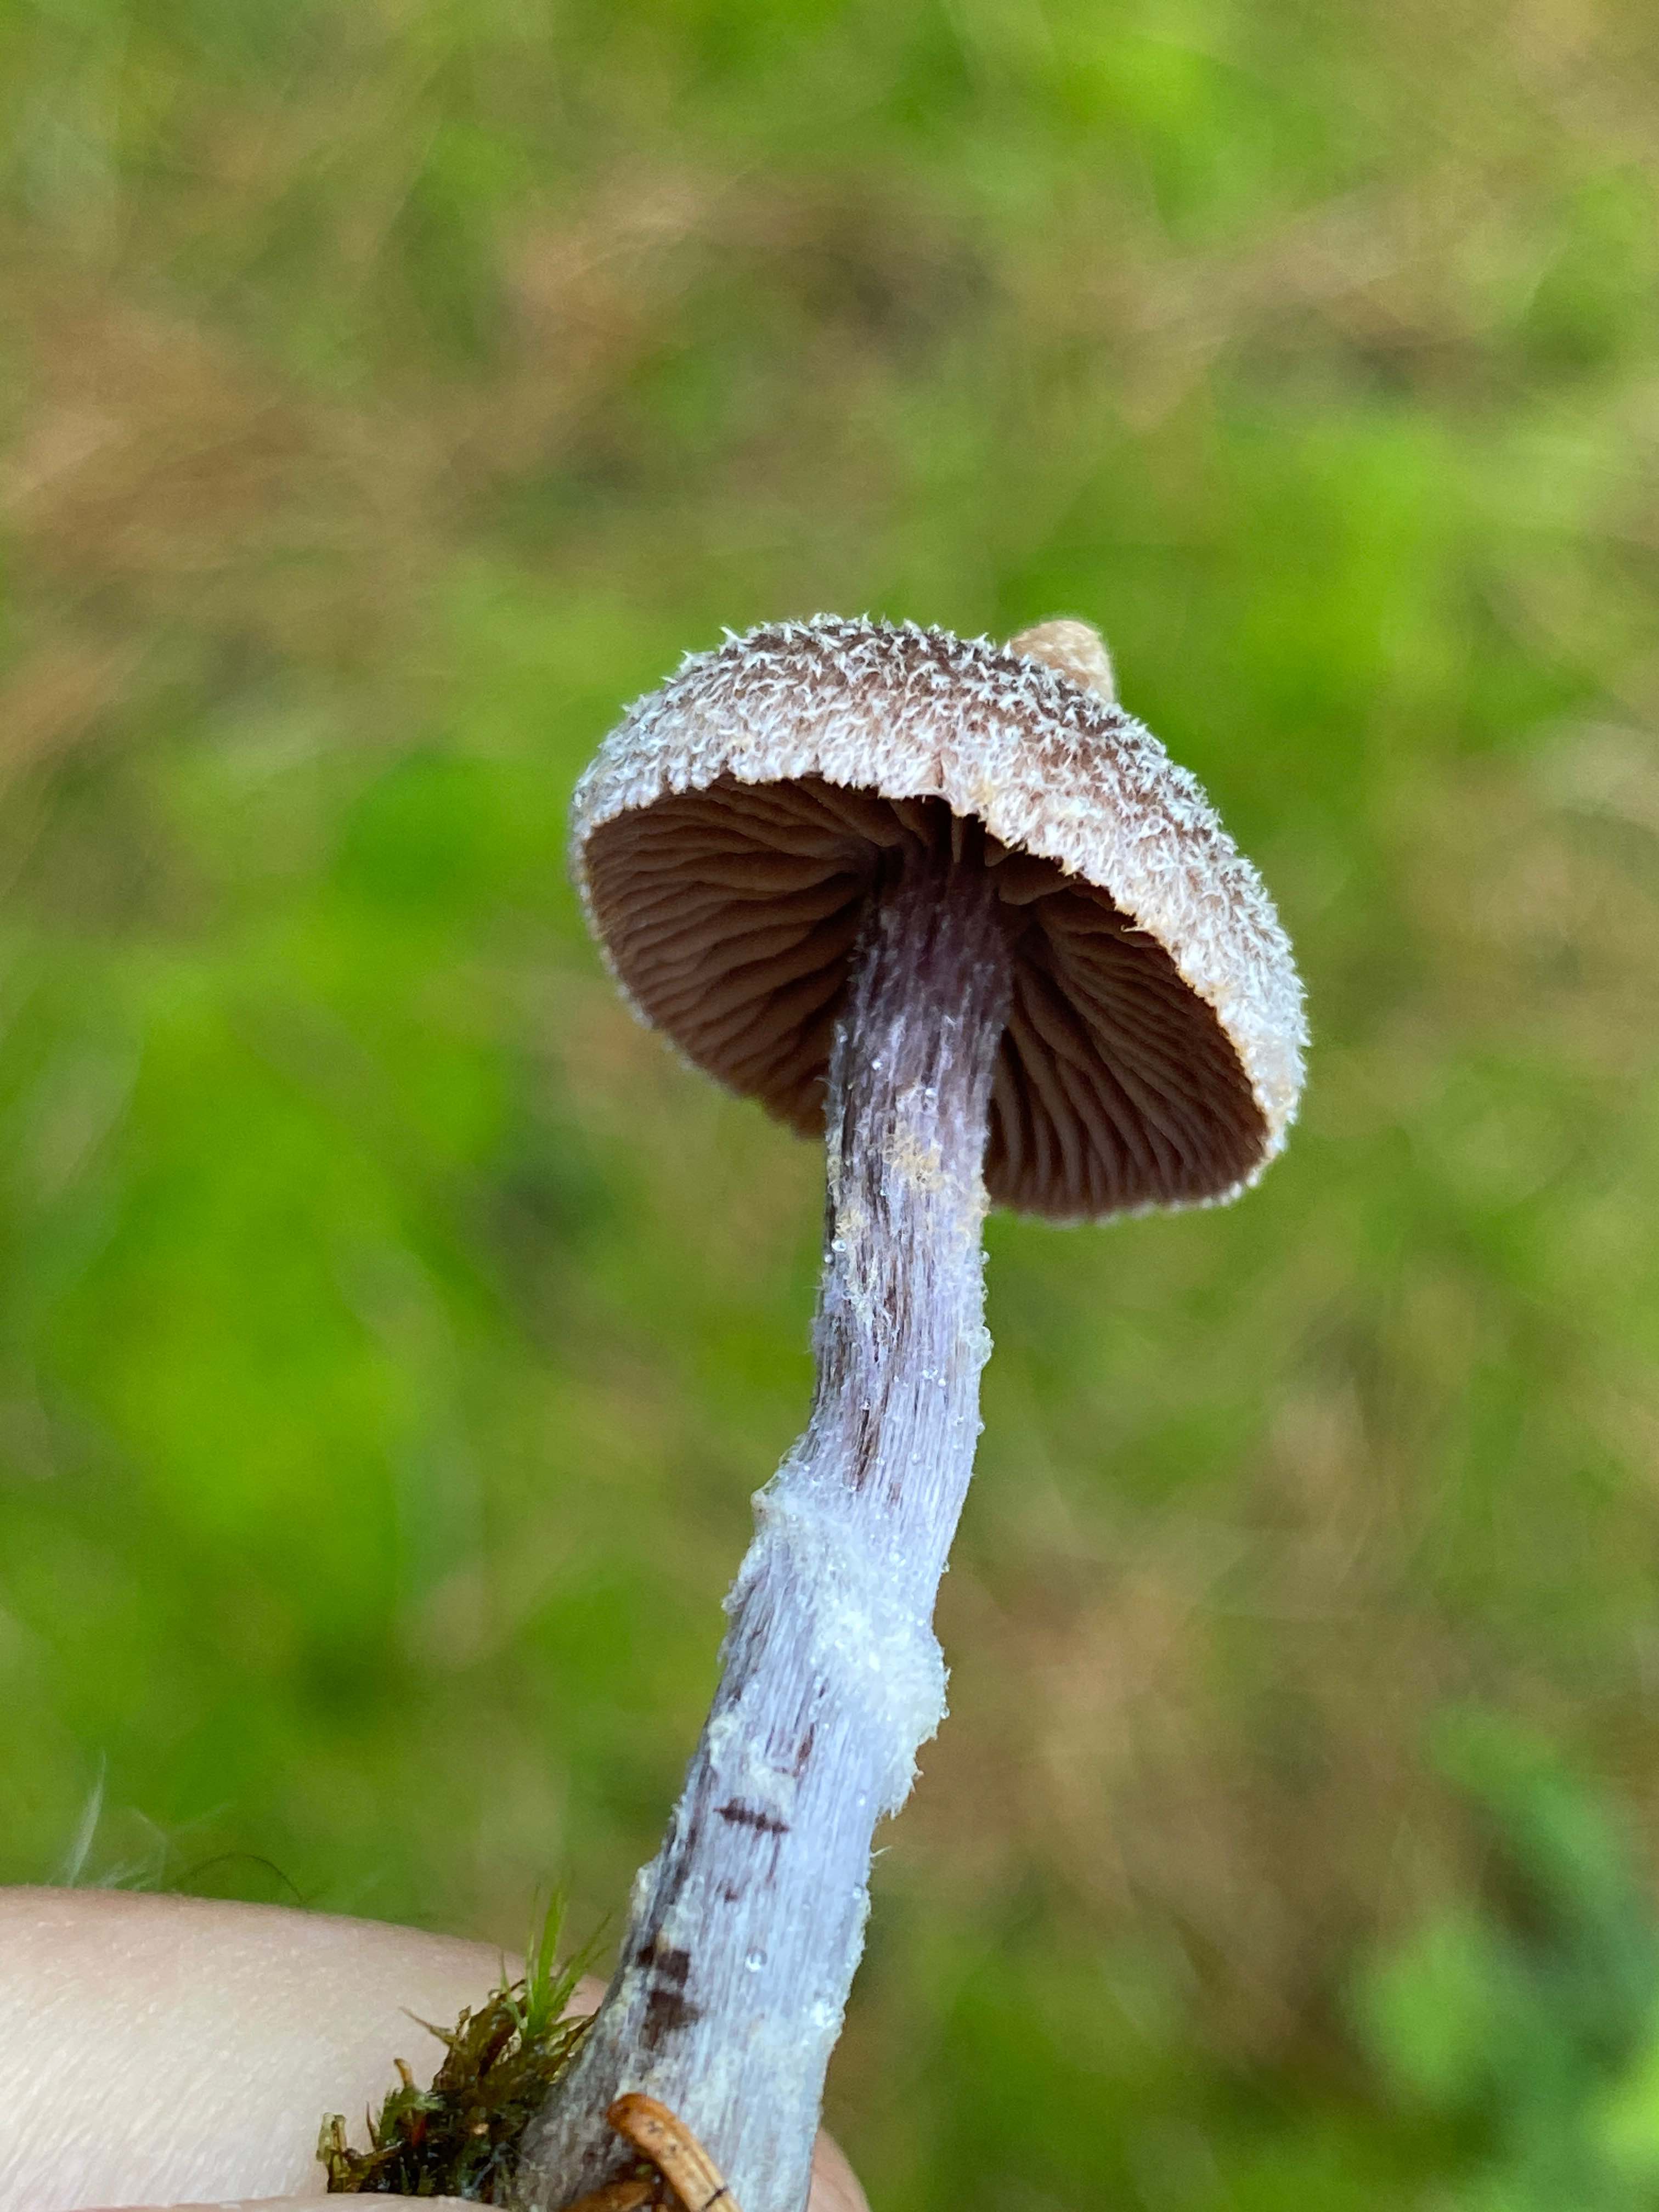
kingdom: Fungi
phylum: Basidiomycota
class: Agaricomycetes
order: Agaricales
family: Cortinariaceae
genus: Cortinarius
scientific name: Cortinarius flexipes
